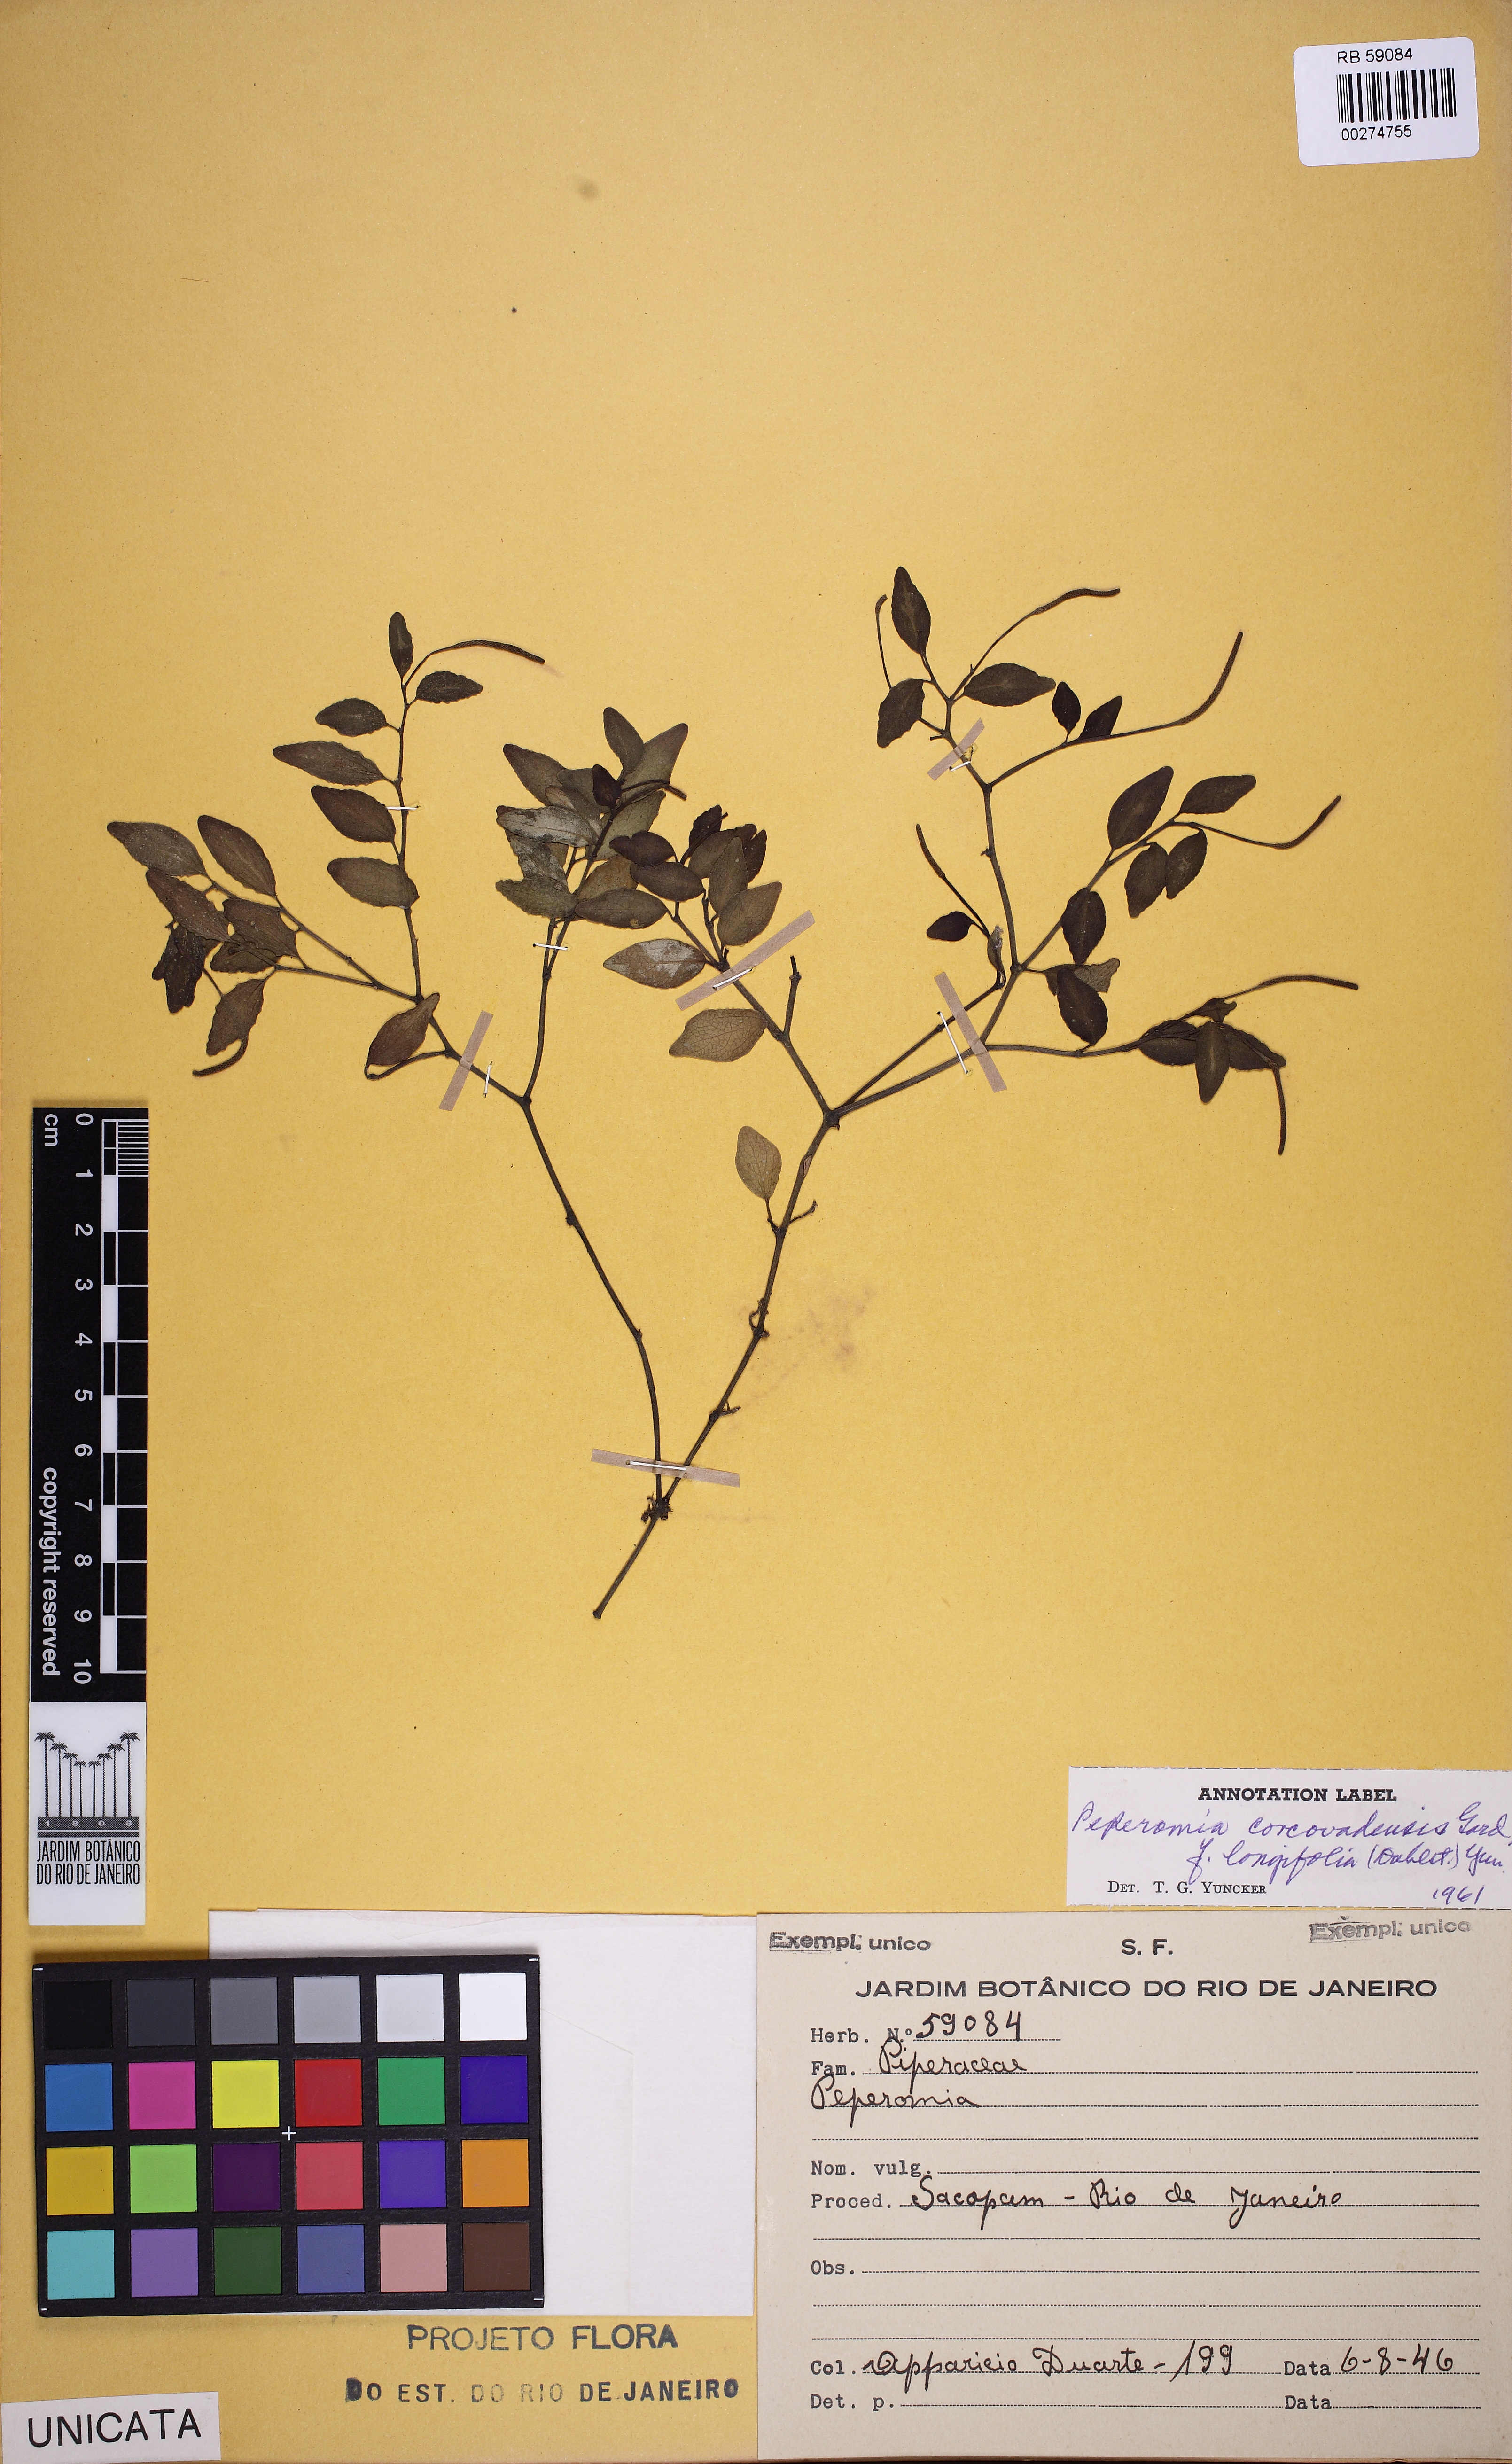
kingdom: Plantae
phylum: Tracheophyta
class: Magnoliopsida
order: Piperales
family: Piperaceae
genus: Peperomia
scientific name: Peperomia corcovadensis
